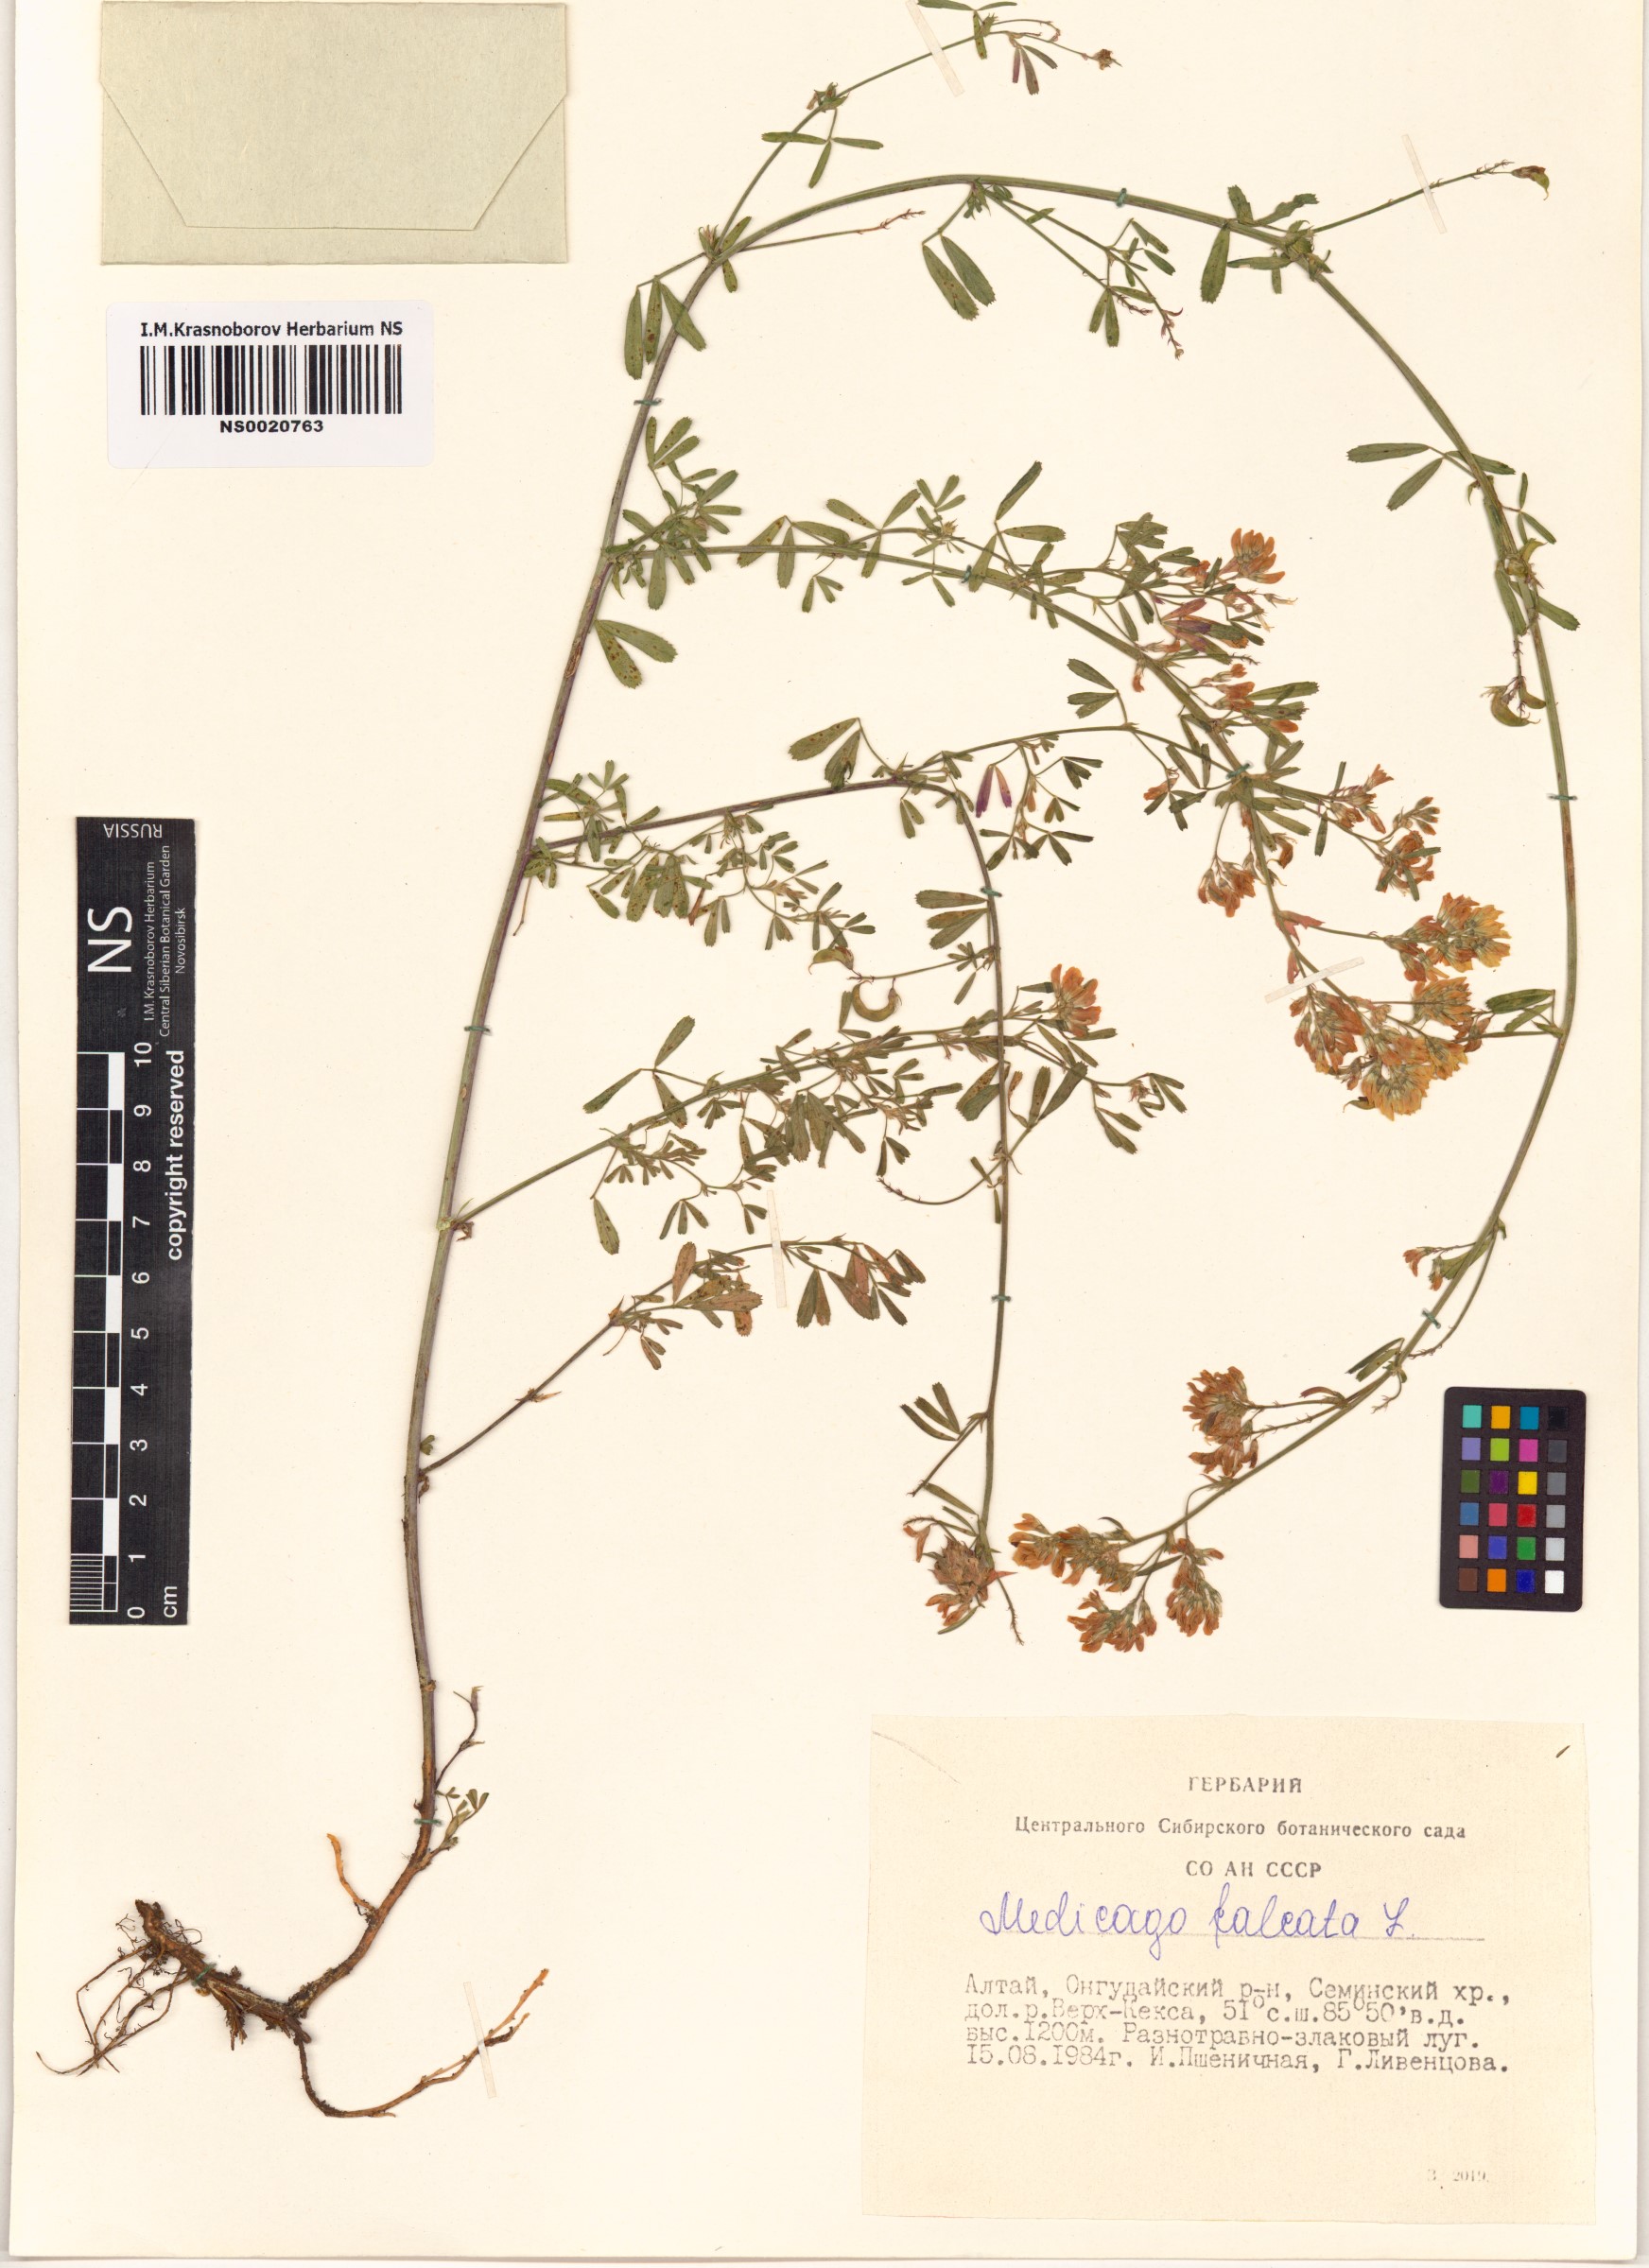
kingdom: Plantae
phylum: Tracheophyta
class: Magnoliopsida
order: Fabales
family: Fabaceae
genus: Medicago
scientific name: Medicago falcata
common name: Sickle medick
